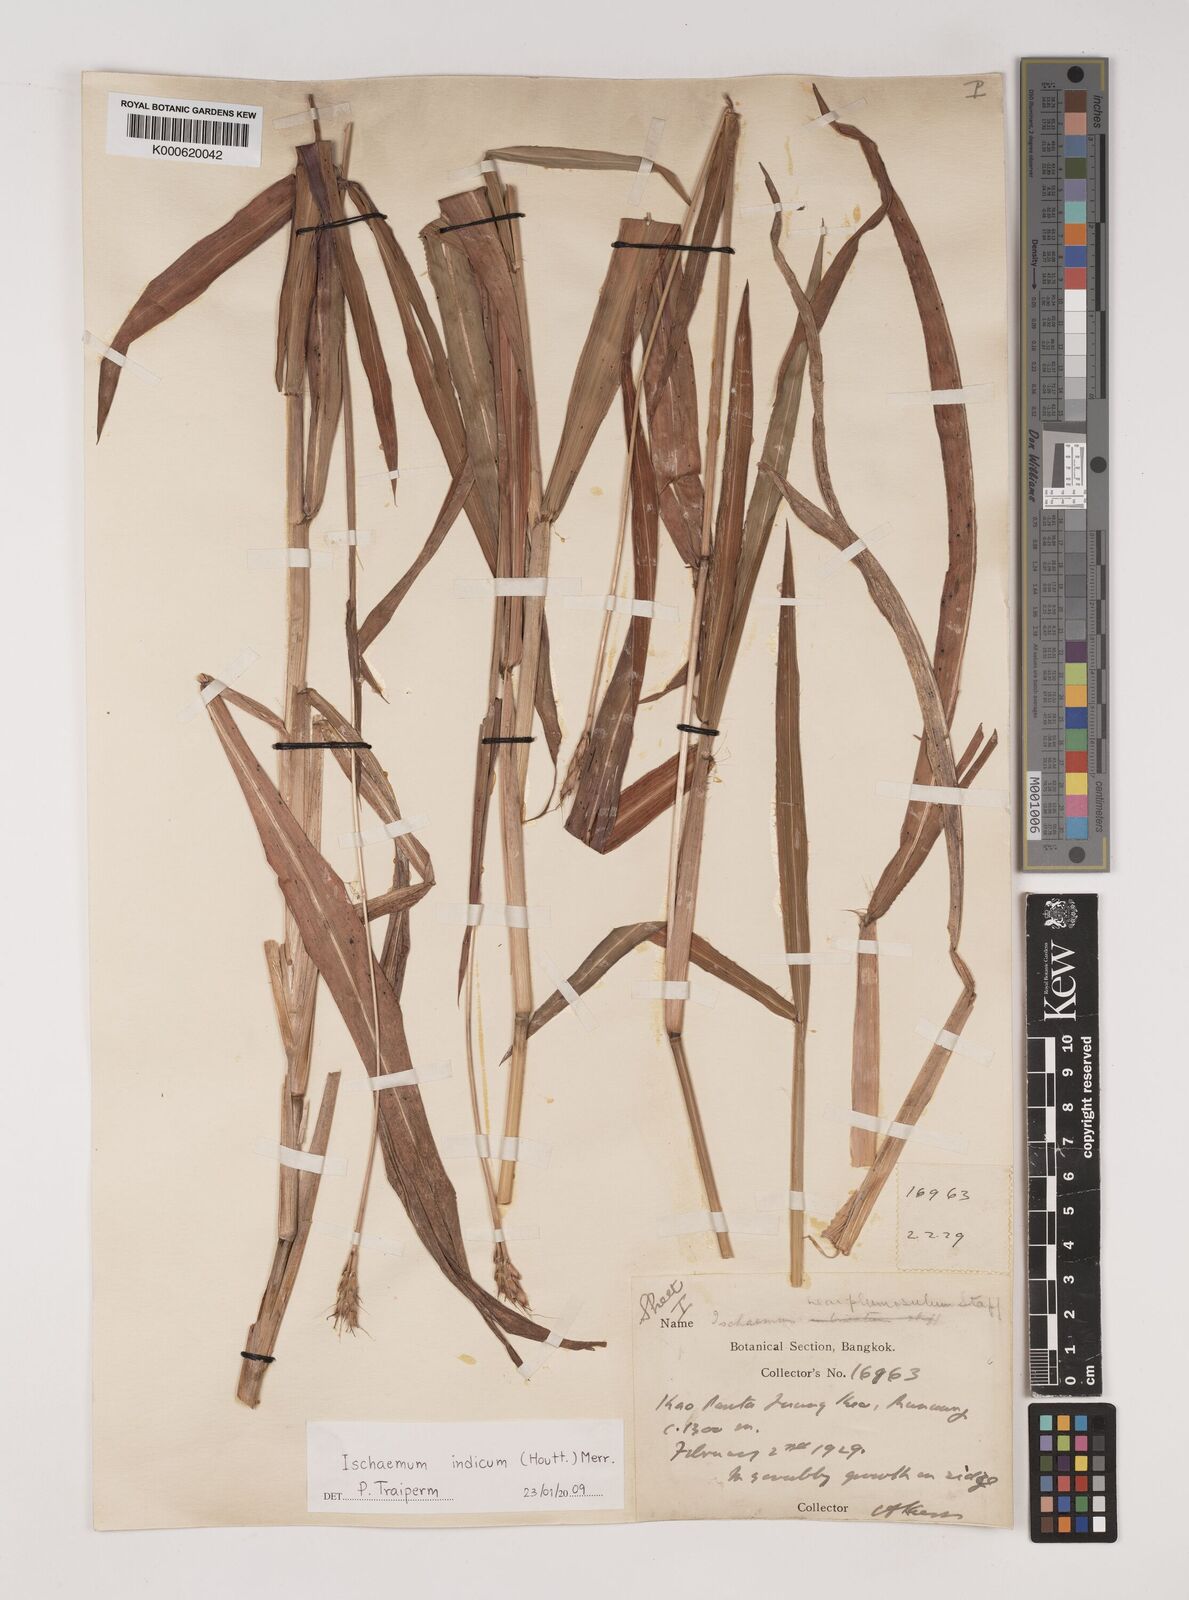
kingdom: Plantae
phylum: Tracheophyta
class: Liliopsida
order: Poales
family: Poaceae
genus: Polytrias
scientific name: Polytrias indica
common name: Indian murainagrass
